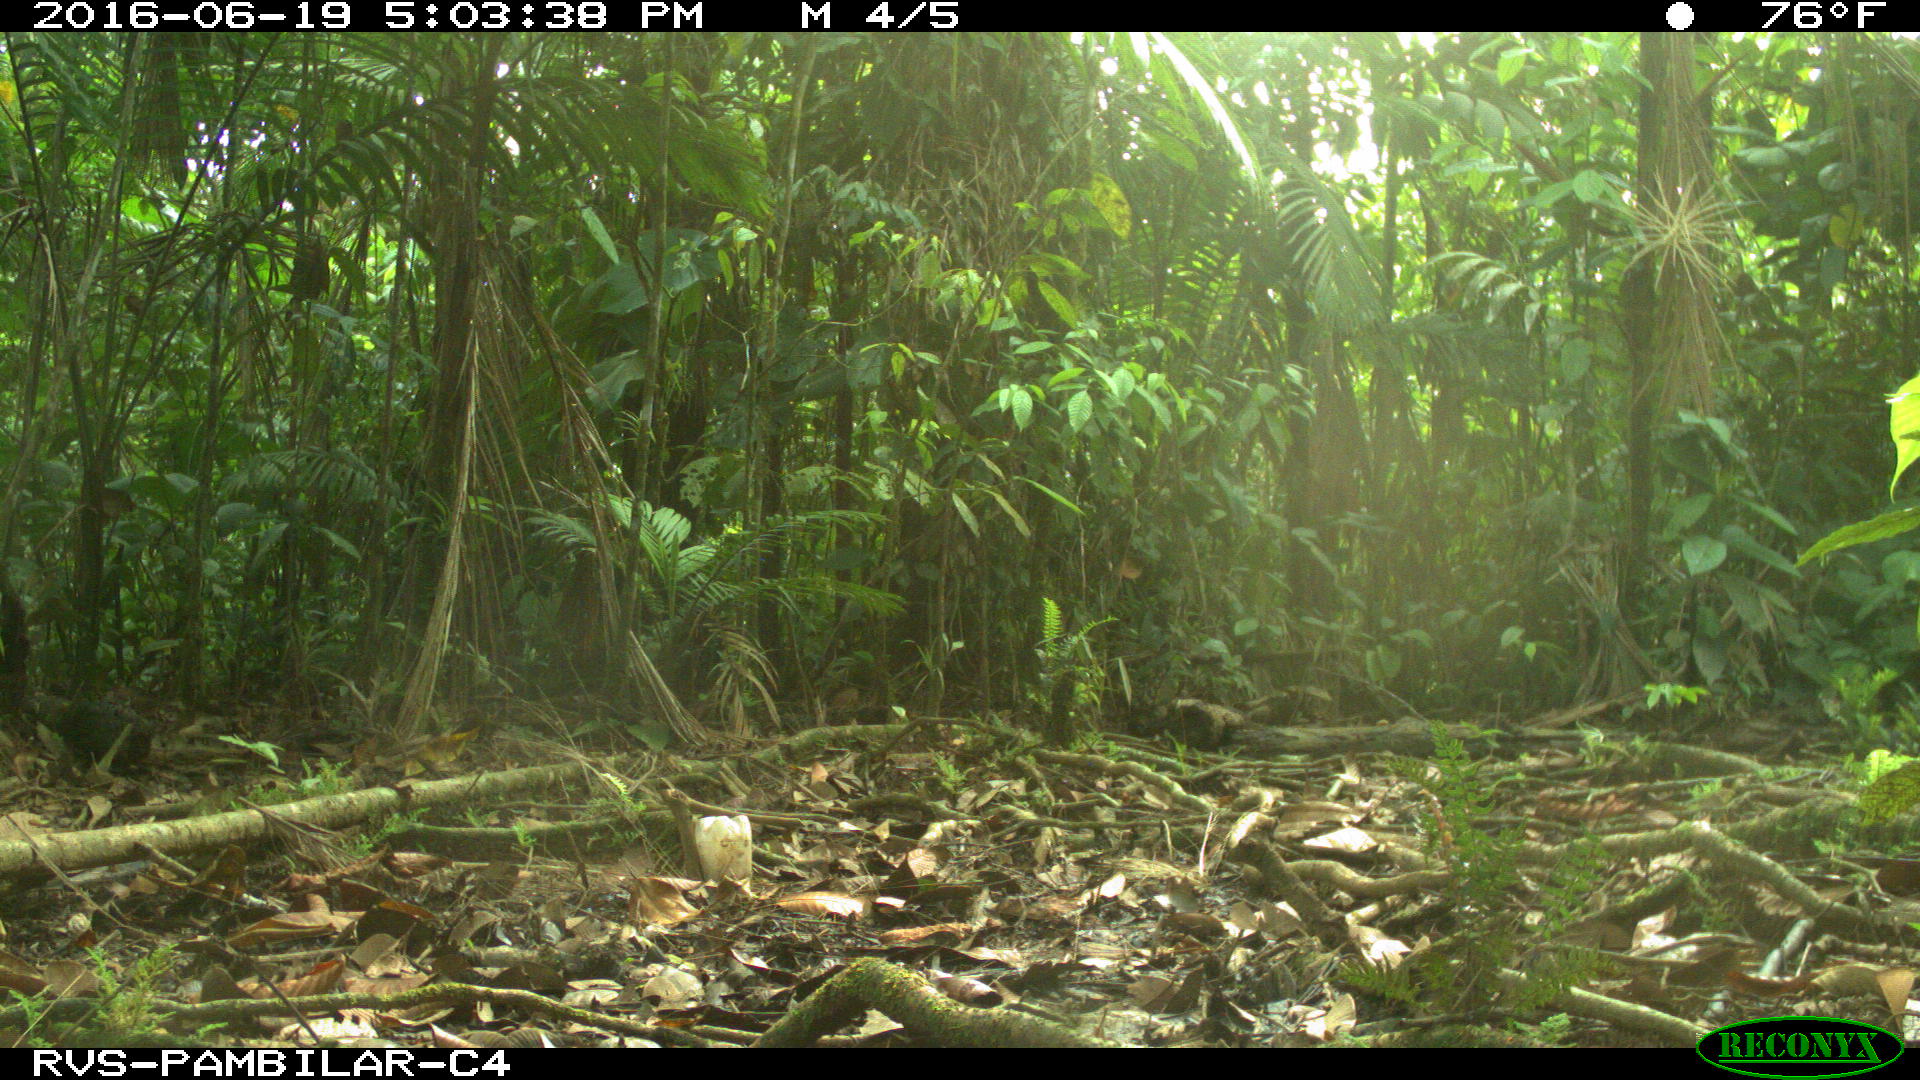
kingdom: Animalia
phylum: Chordata
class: Mammalia
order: Rodentia
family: Dasyproctidae
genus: Dasyprocta
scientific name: Dasyprocta punctata
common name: Central american agouti
